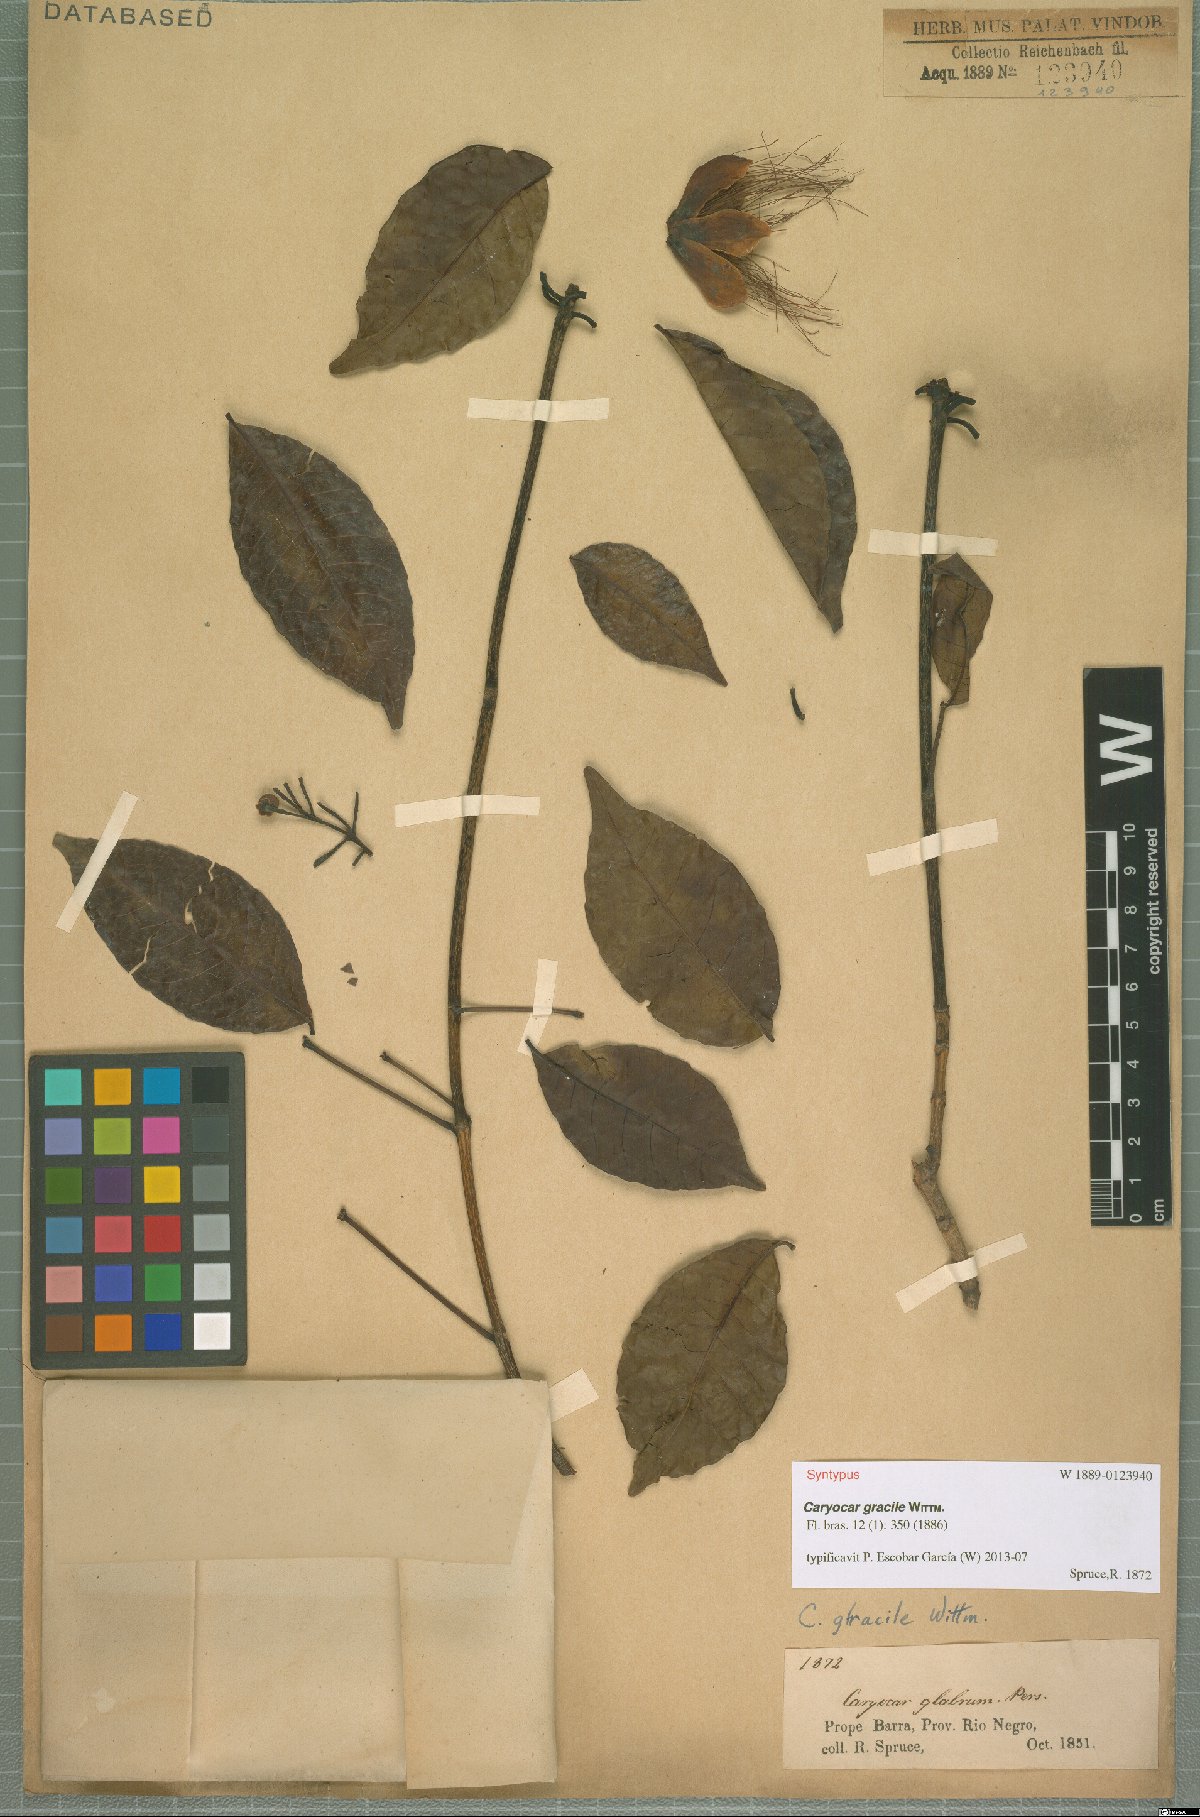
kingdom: Plantae
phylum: Tracheophyta
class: Magnoliopsida
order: Malpighiales
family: Caryocaraceae
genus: Caryocar
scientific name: Caryocar gracile
